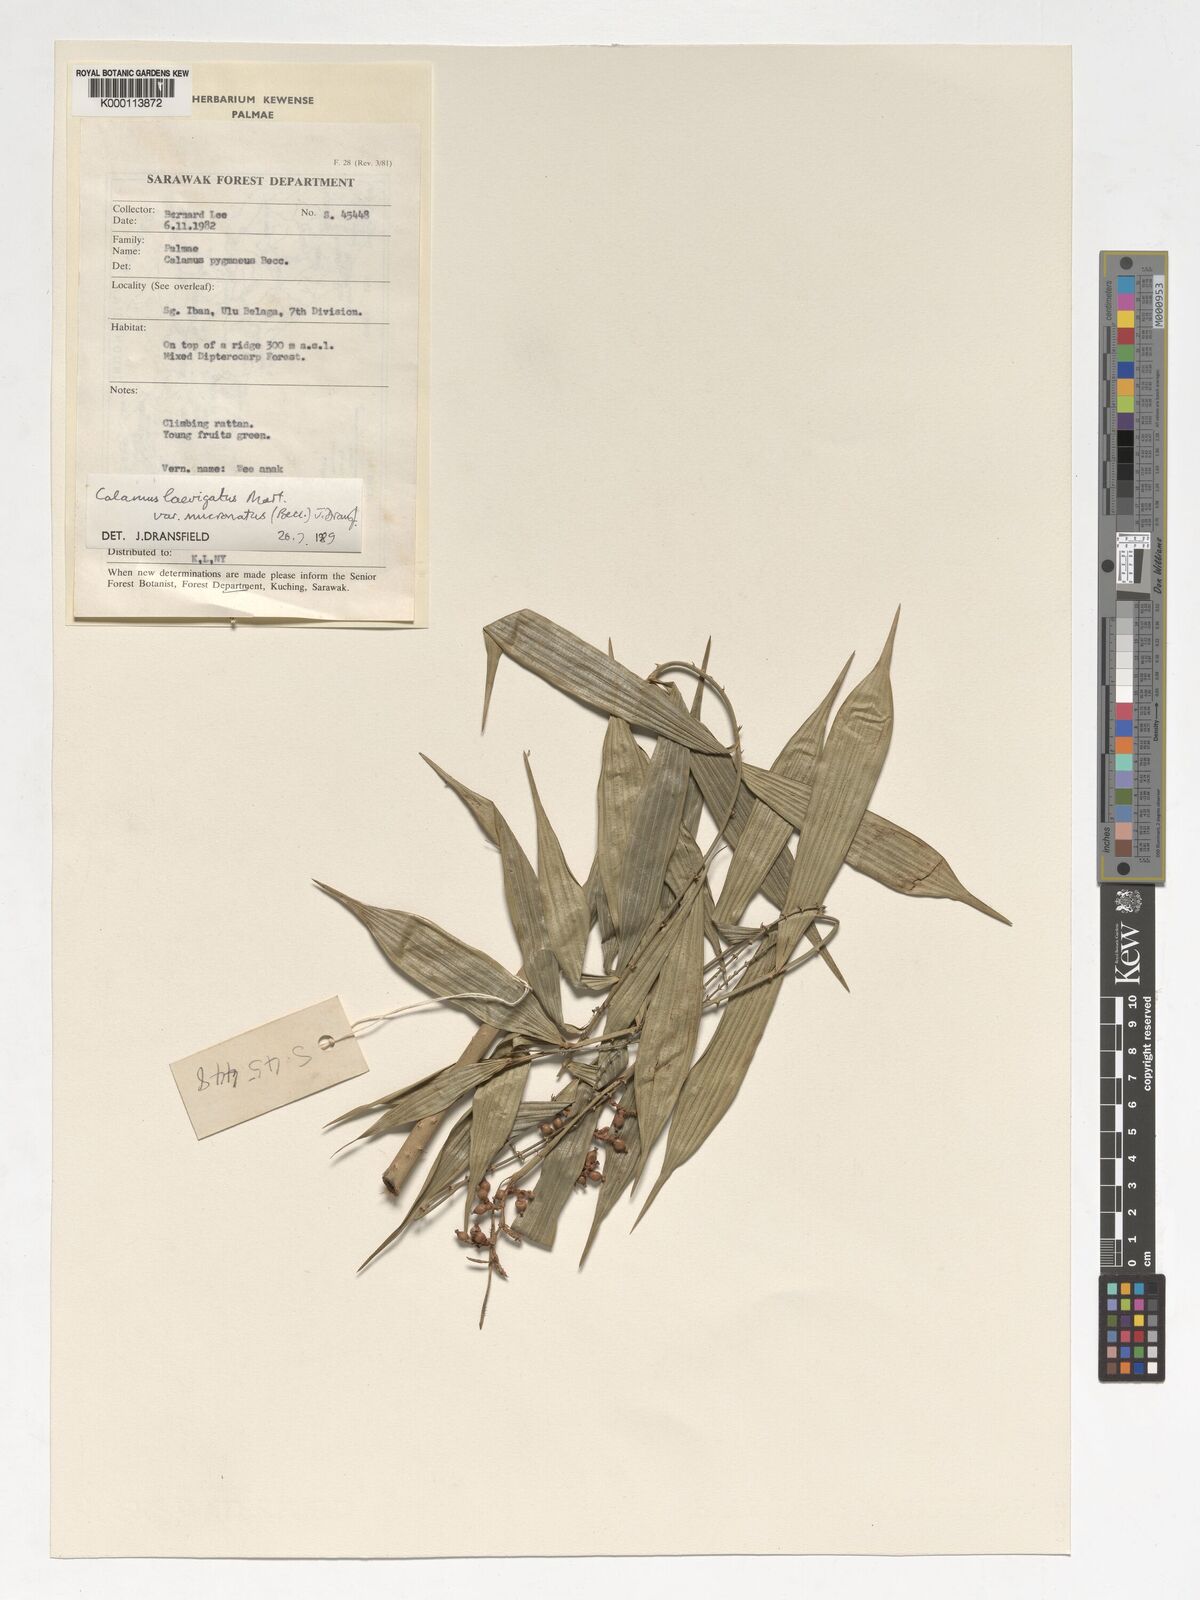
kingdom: Plantae
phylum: Tracheophyta
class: Liliopsida
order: Arecales
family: Arecaceae
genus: Calamus
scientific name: Calamus plicatus
